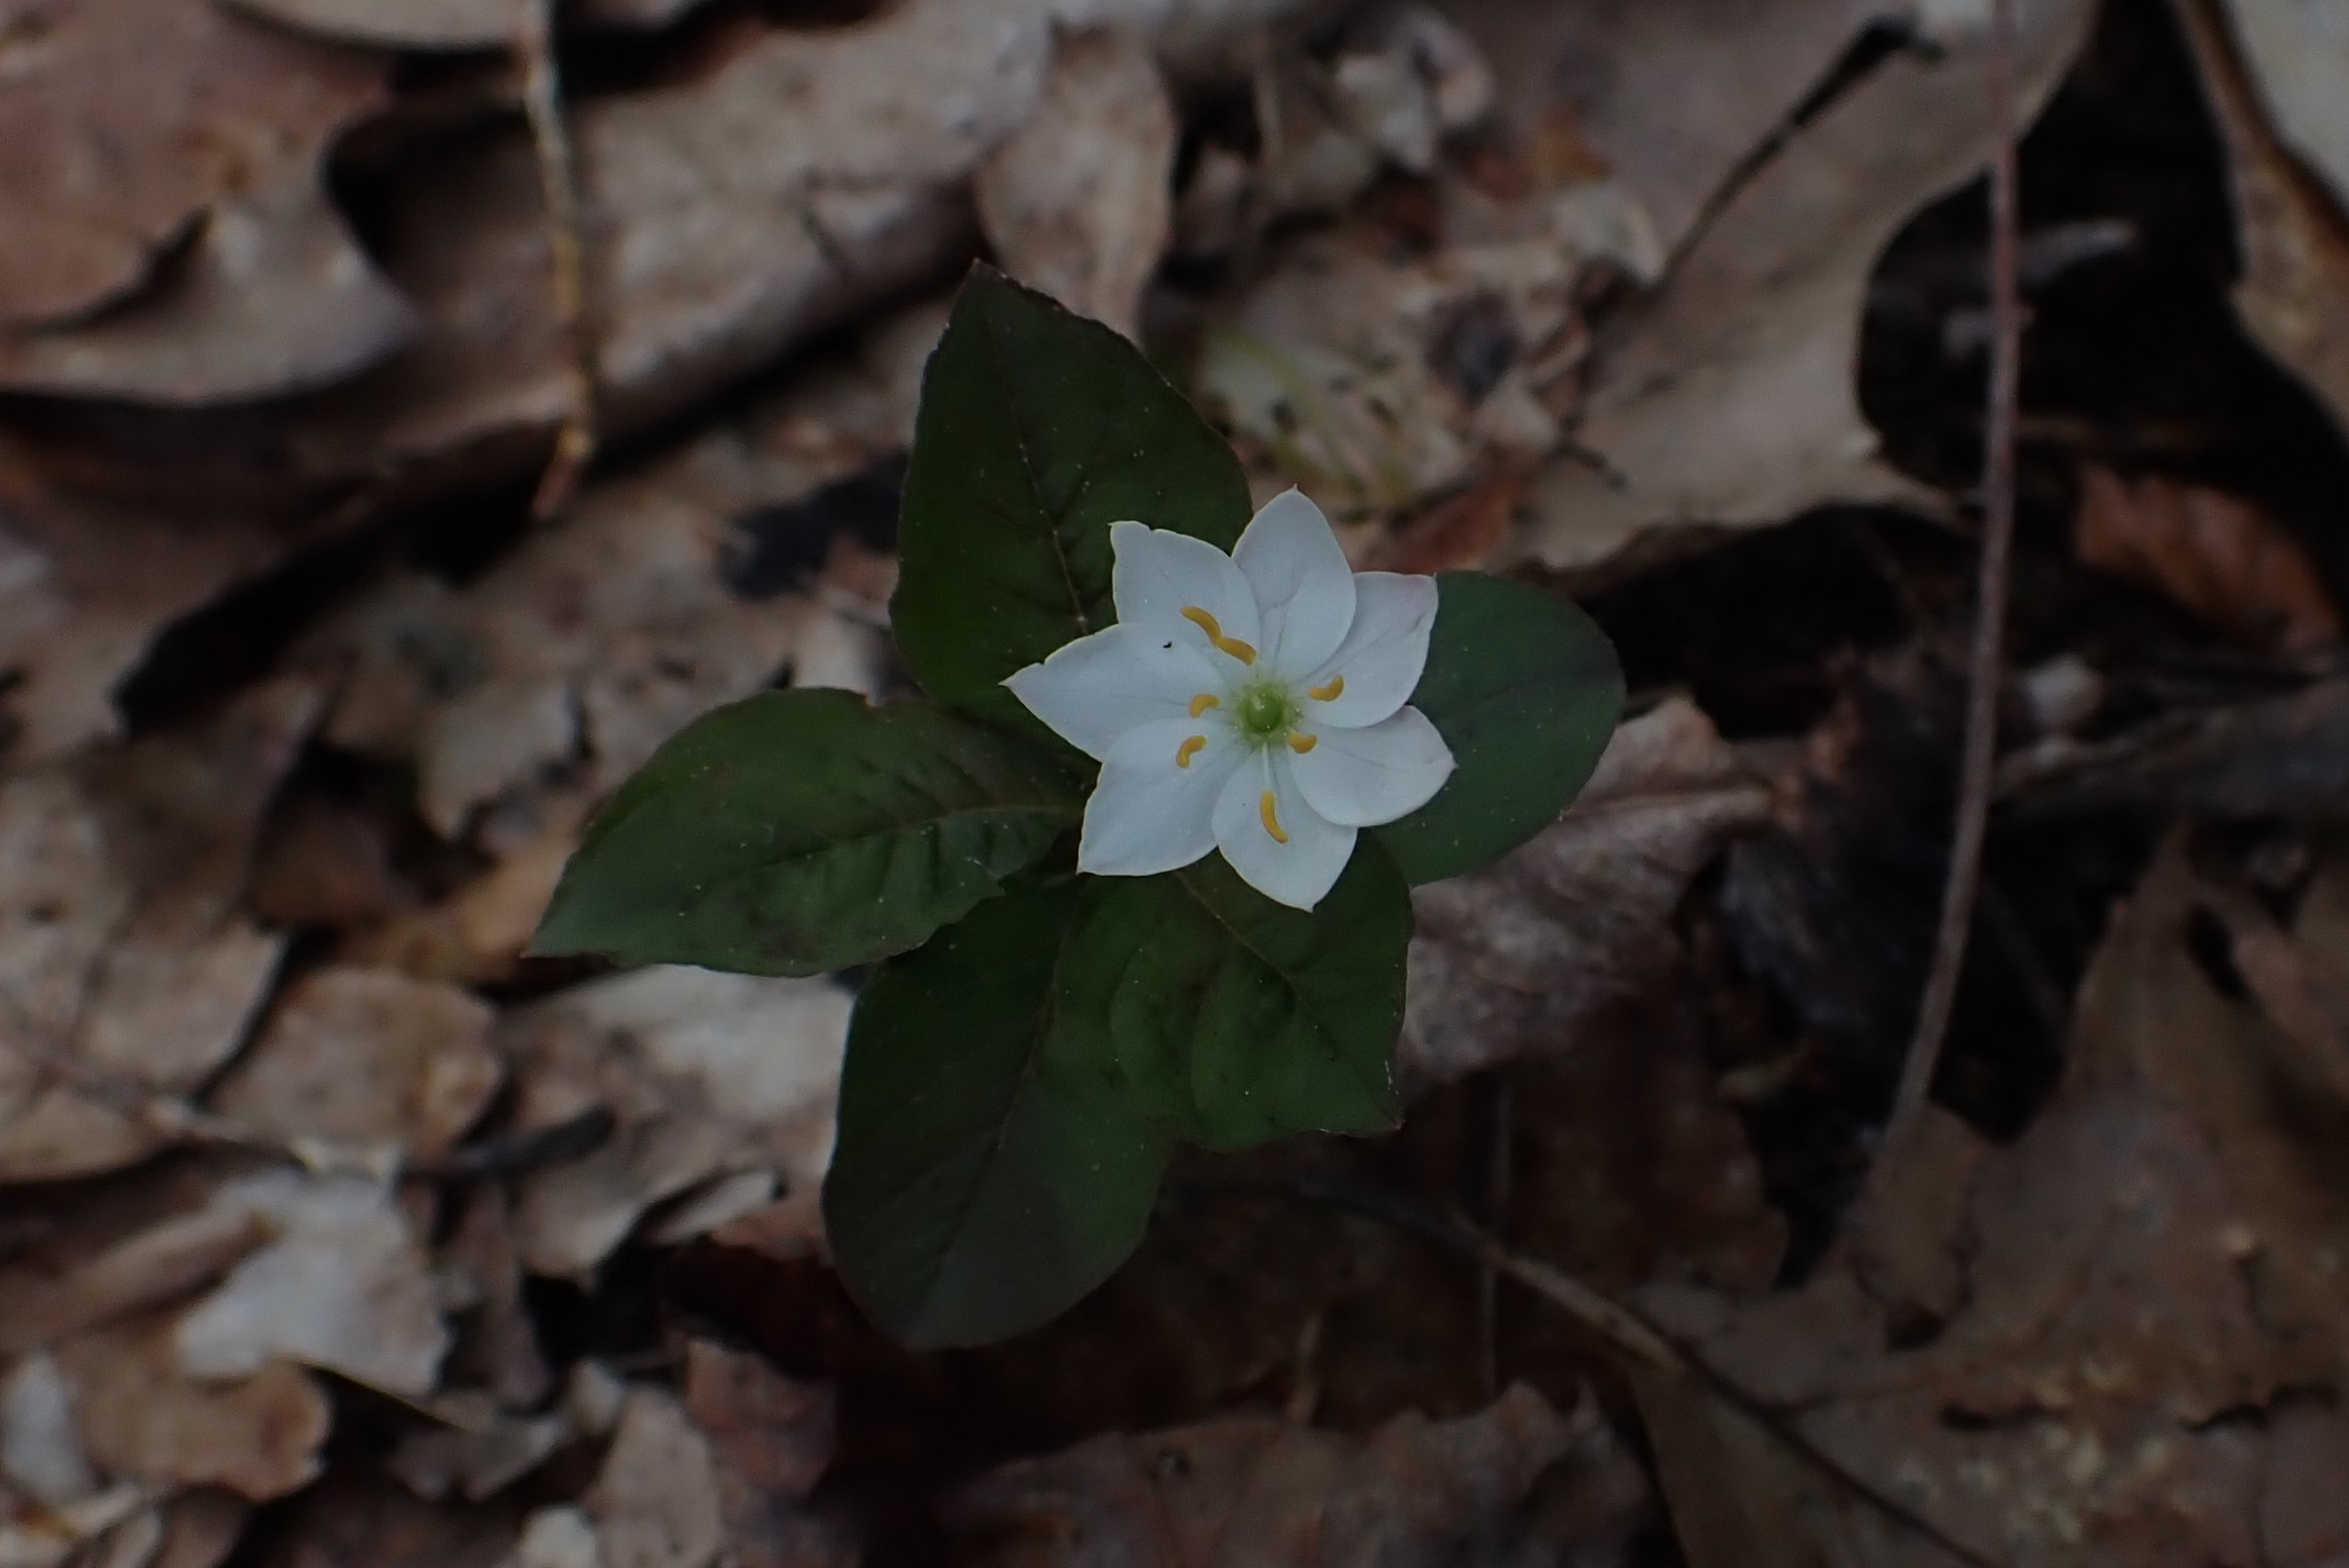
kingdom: Plantae
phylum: Tracheophyta
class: Magnoliopsida
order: Ericales
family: Primulaceae
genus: Lysimachia
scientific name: Lysimachia europaea
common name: Skovstjerne
